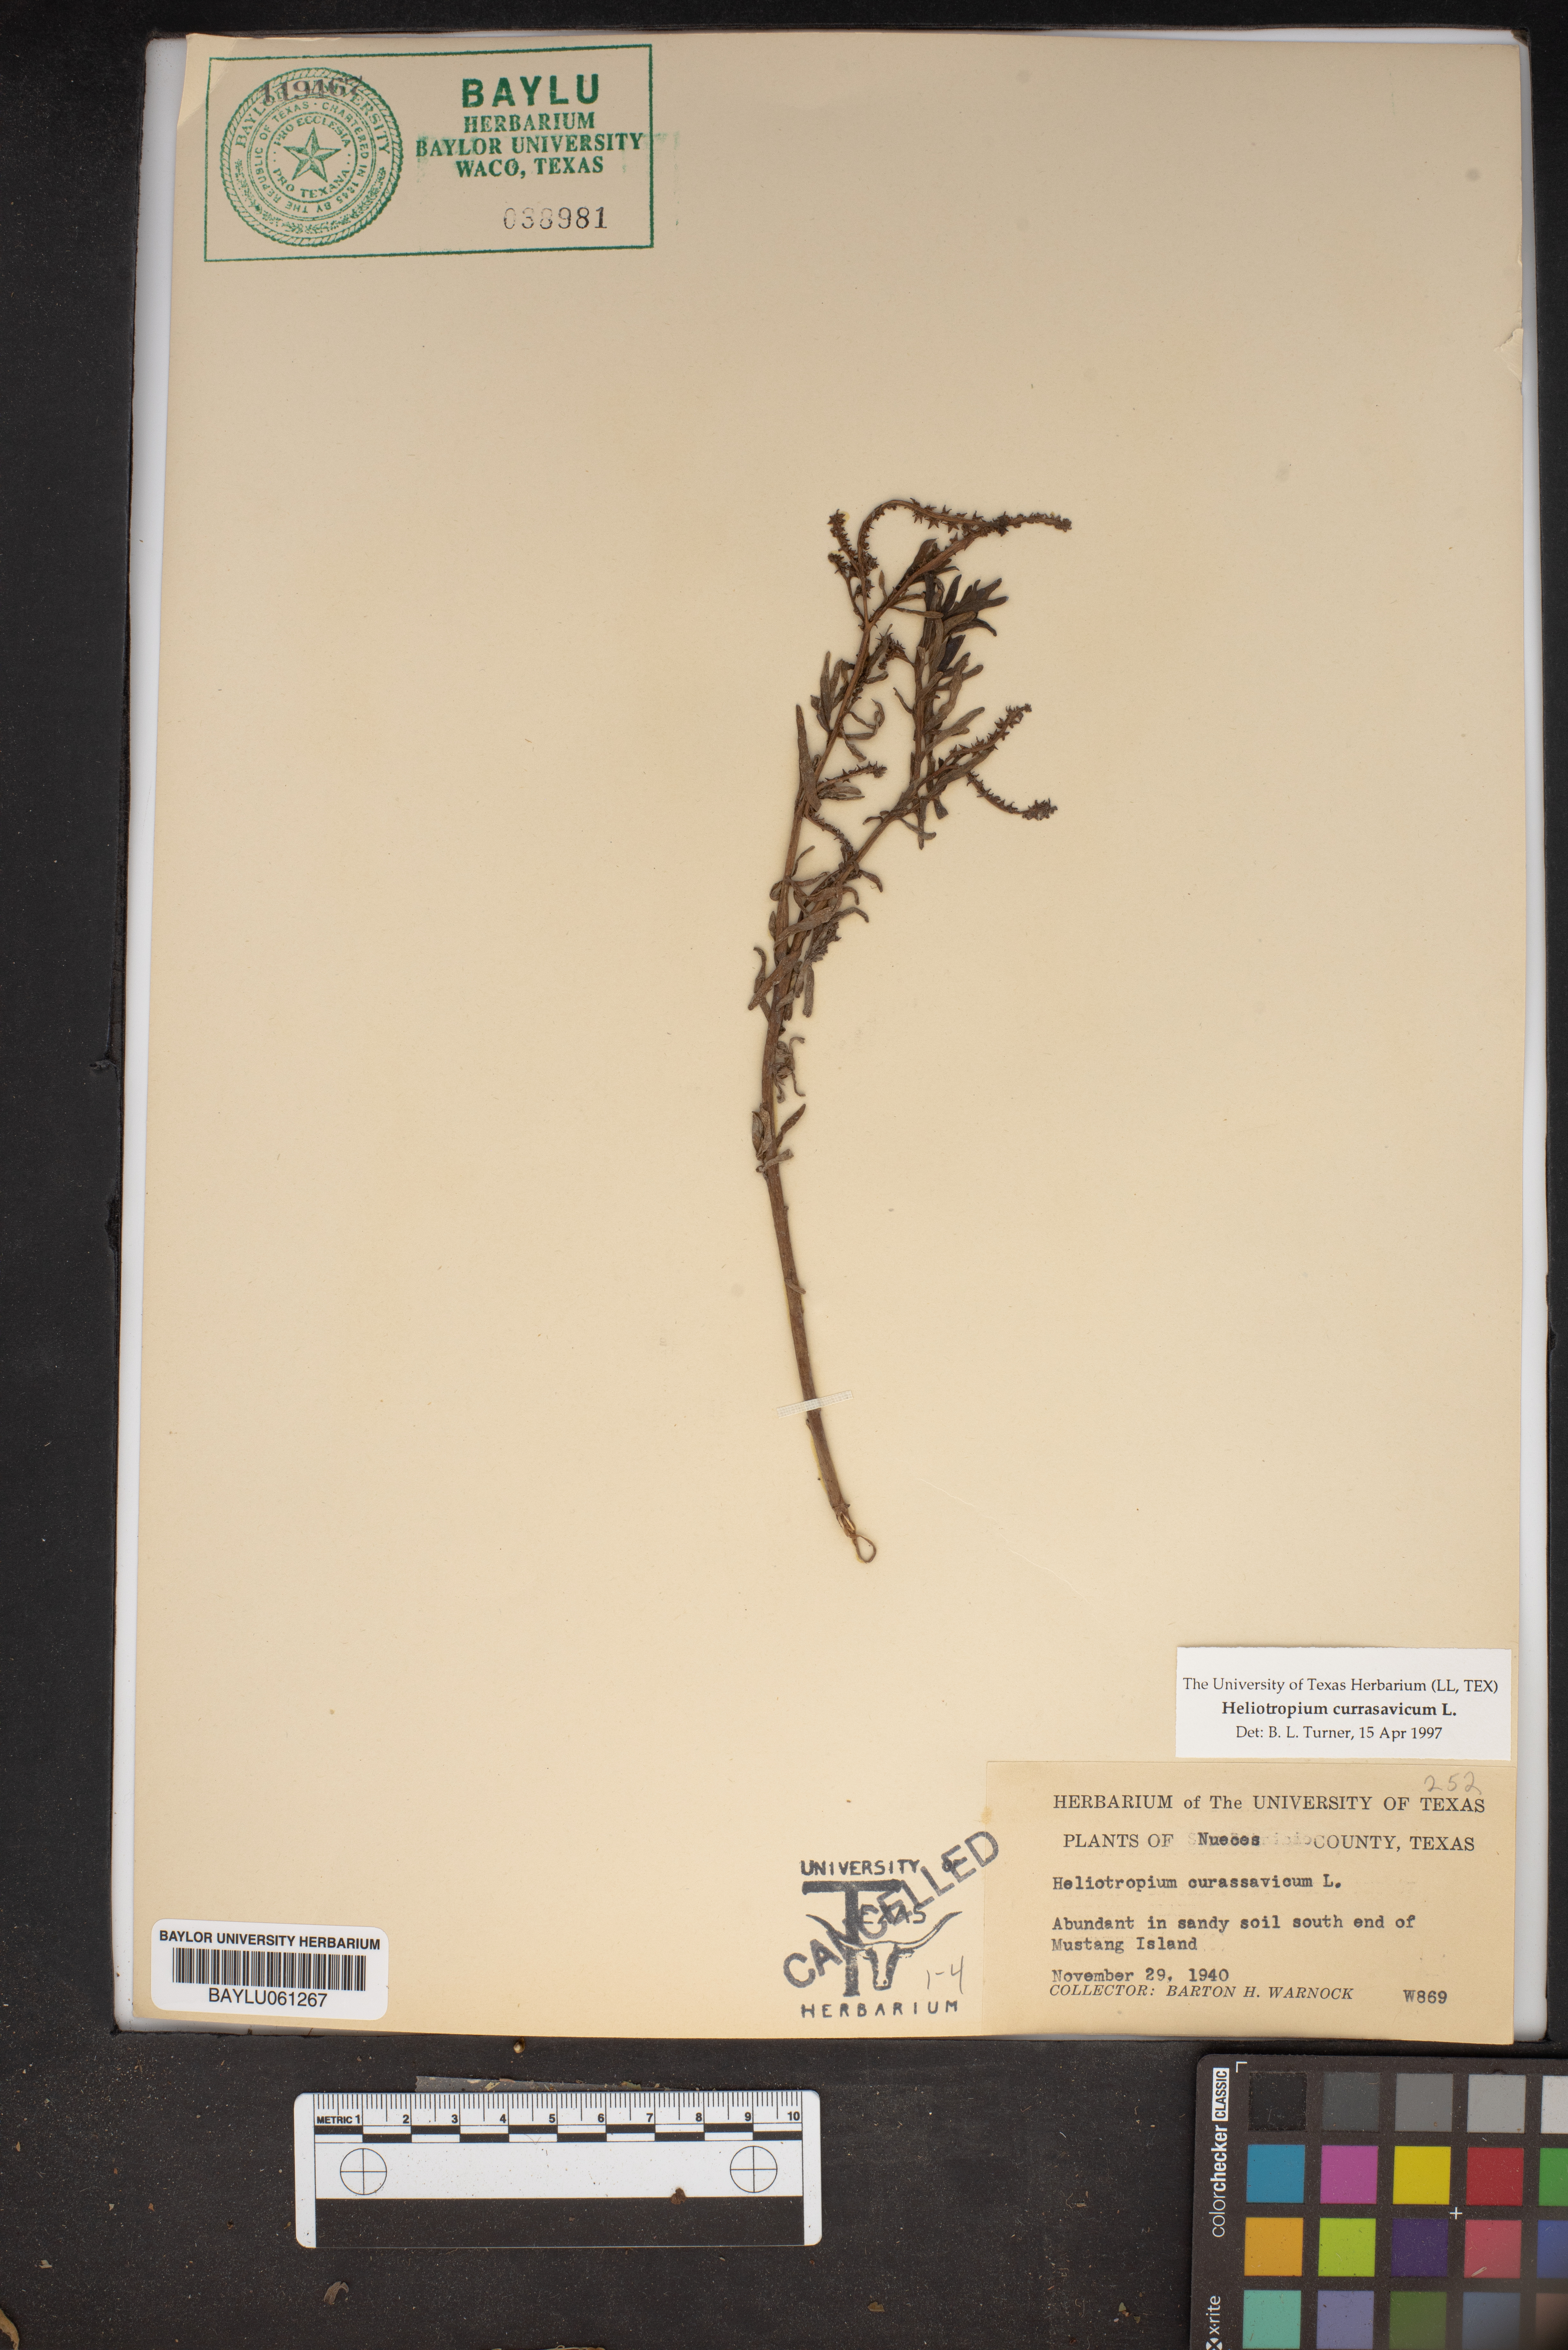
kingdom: Plantae
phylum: Tracheophyta
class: Magnoliopsida
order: Boraginales
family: Heliotropiaceae
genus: Heliotropium
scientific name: Heliotropium curassavicum
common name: Seaside heliotrope
